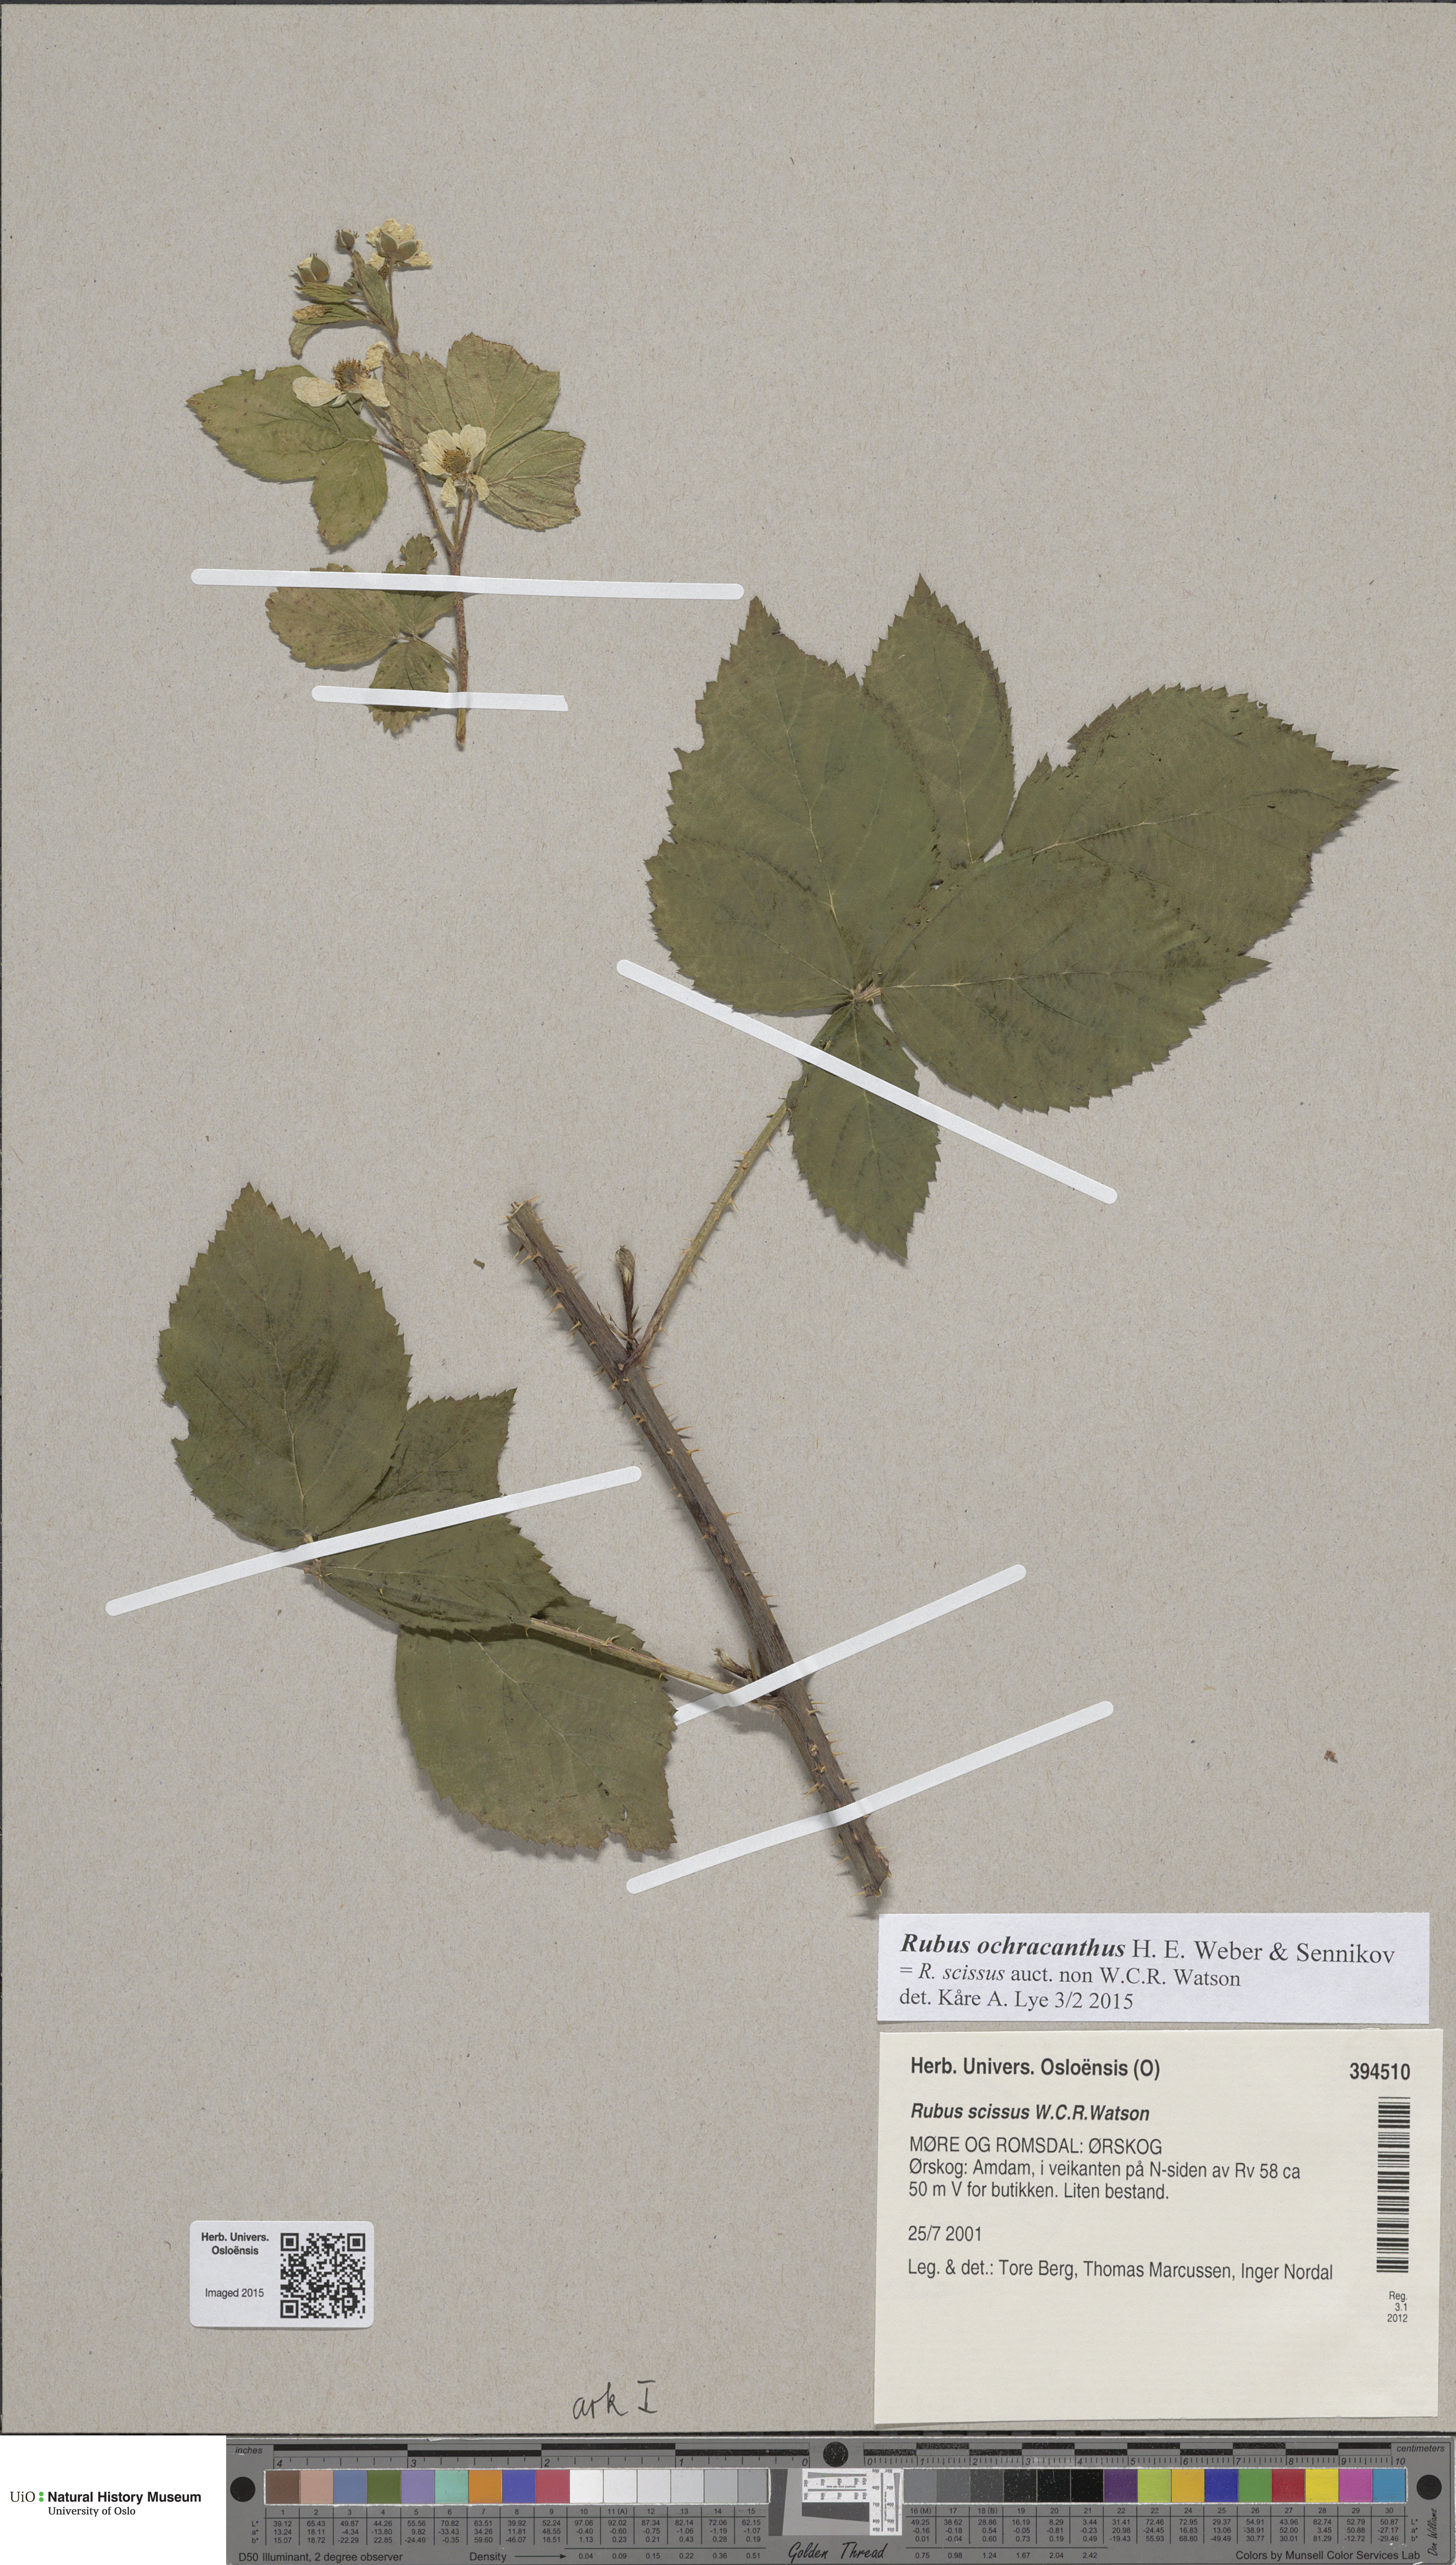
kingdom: Plantae
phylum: Tracheophyta
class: Magnoliopsida
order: Rosales
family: Rosaceae
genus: Rubus
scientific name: Rubus scissus
